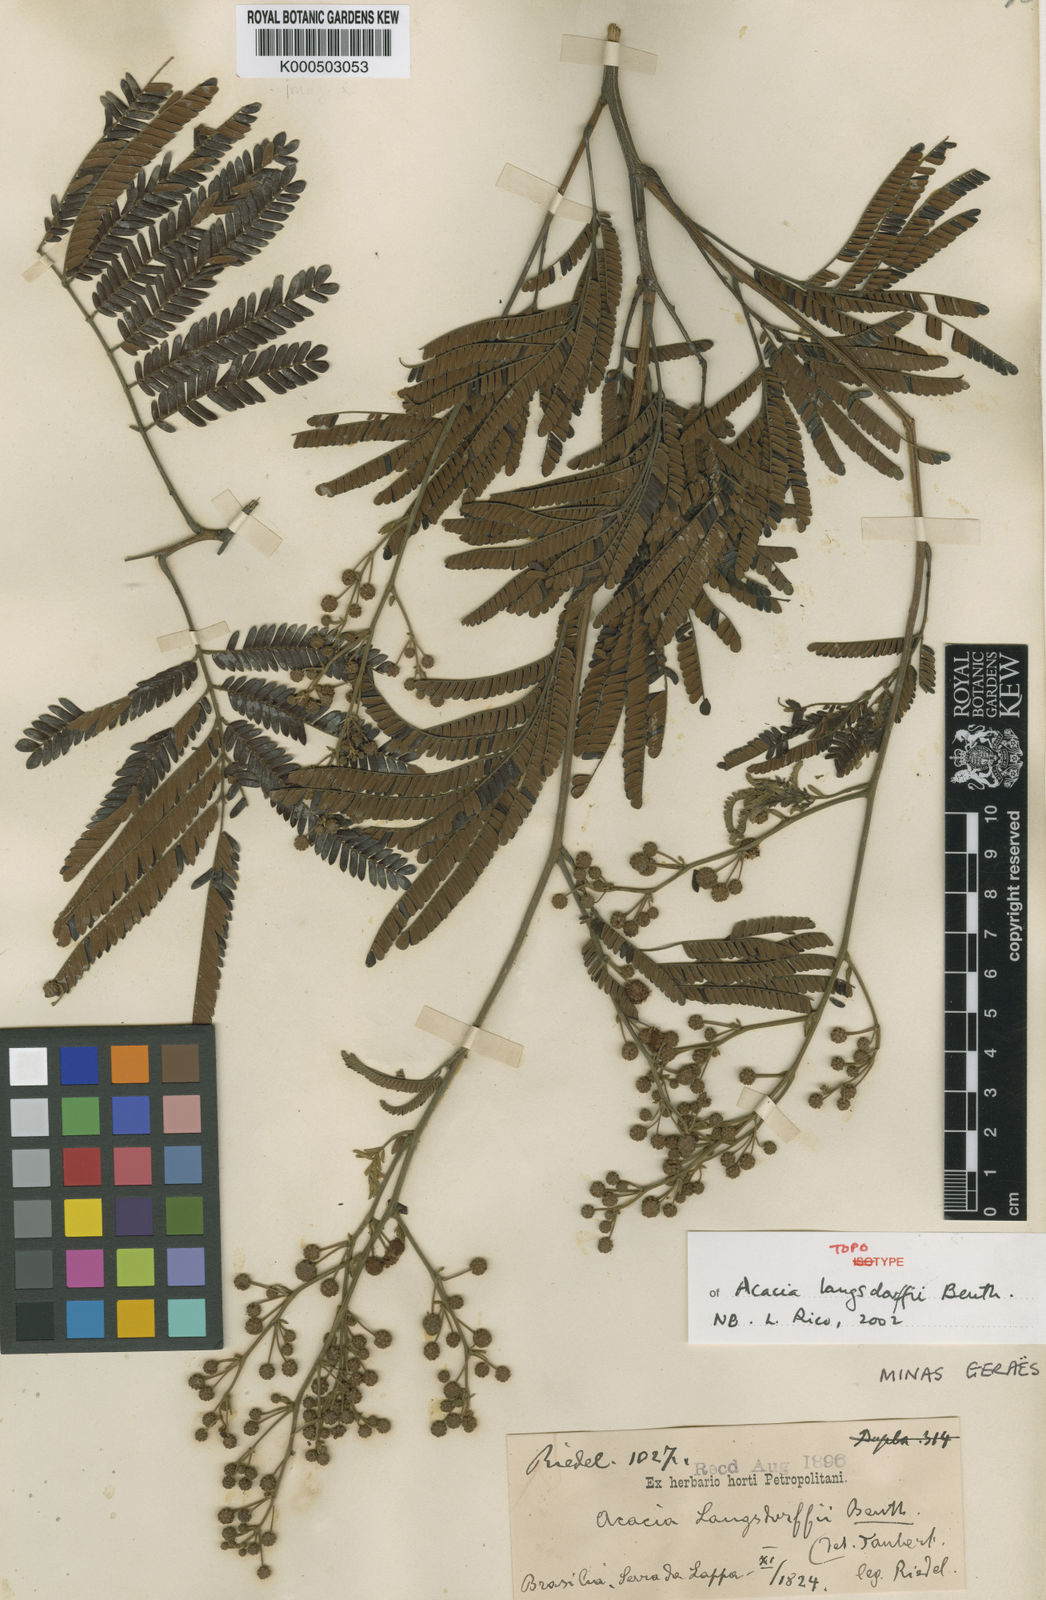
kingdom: Plantae
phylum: Tracheophyta
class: Magnoliopsida
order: Fabales
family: Fabaceae
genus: Acacia
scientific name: Acacia
